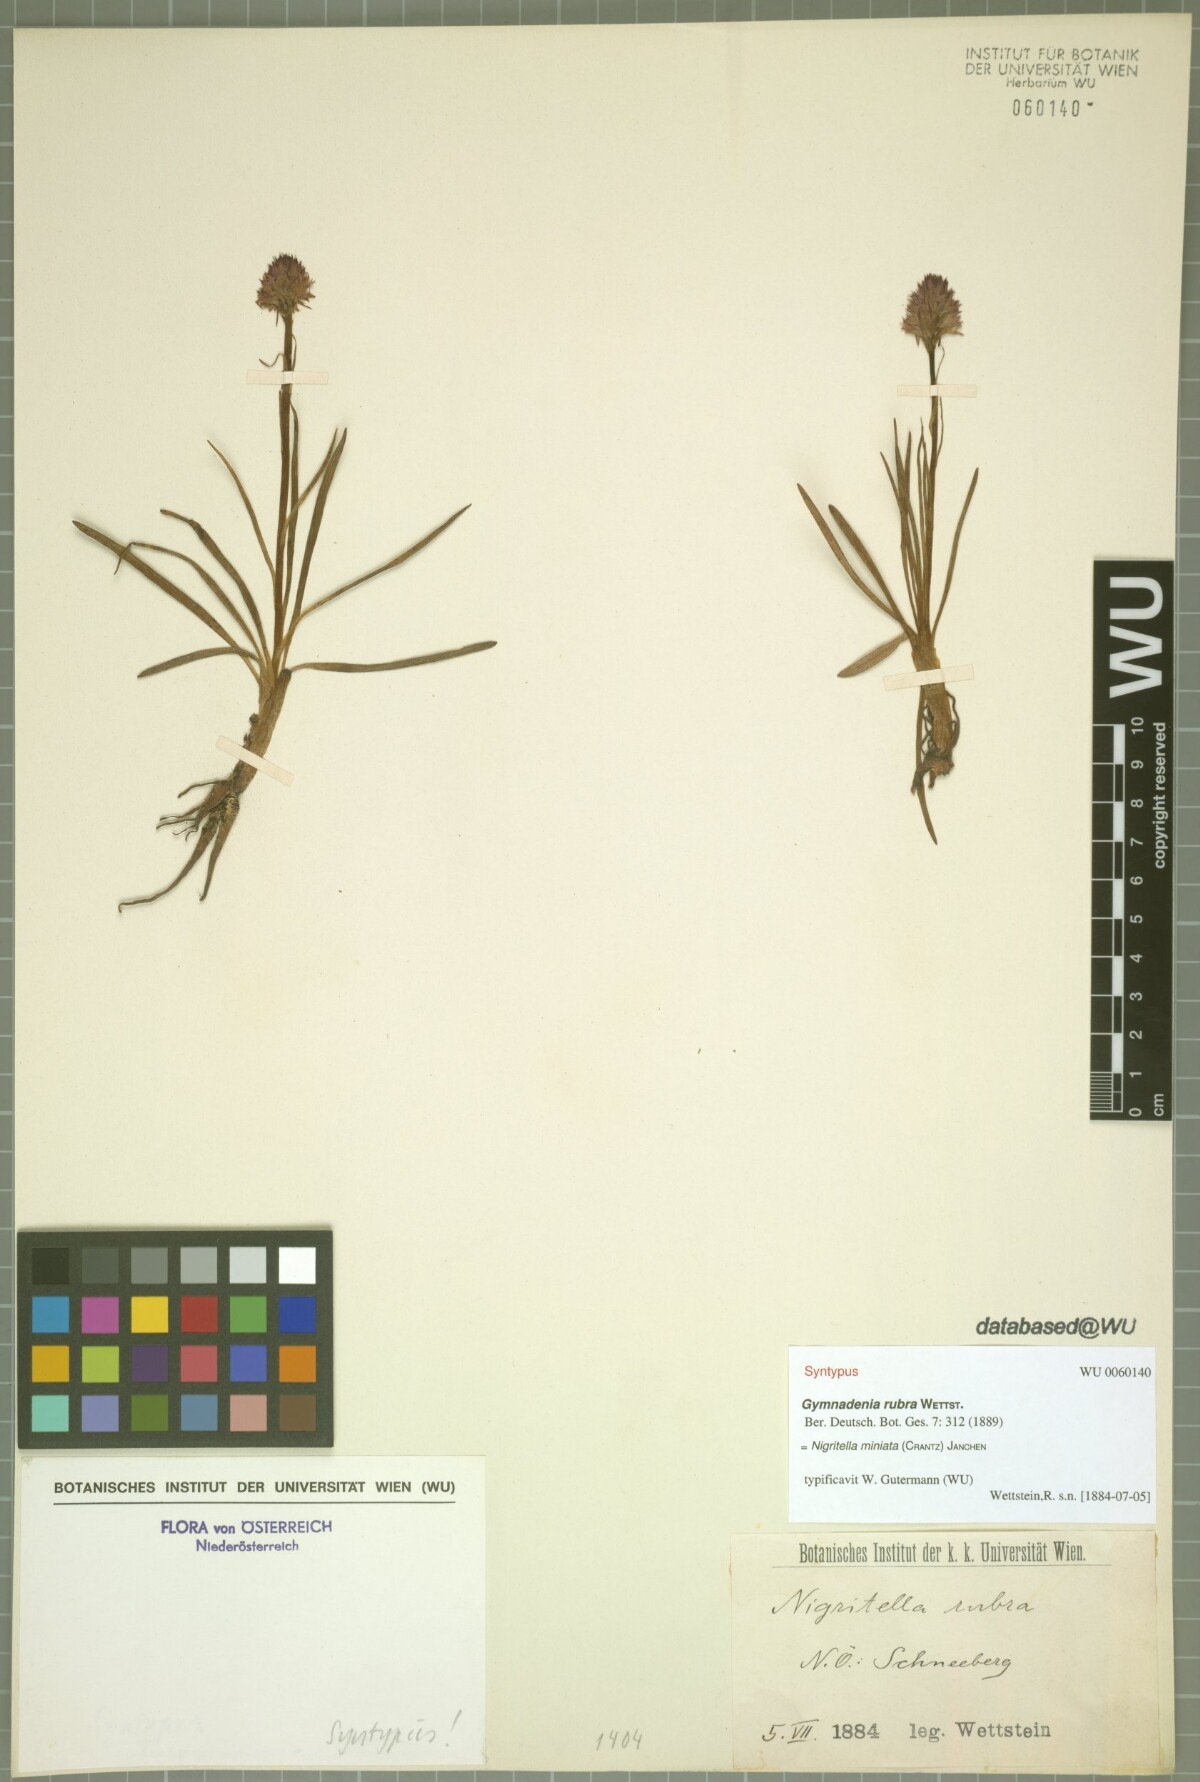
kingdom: Plantae
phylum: Tracheophyta
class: Liliopsida
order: Asparagales
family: Orchidaceae
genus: Gymnadenia
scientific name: Gymnadenia miniata
